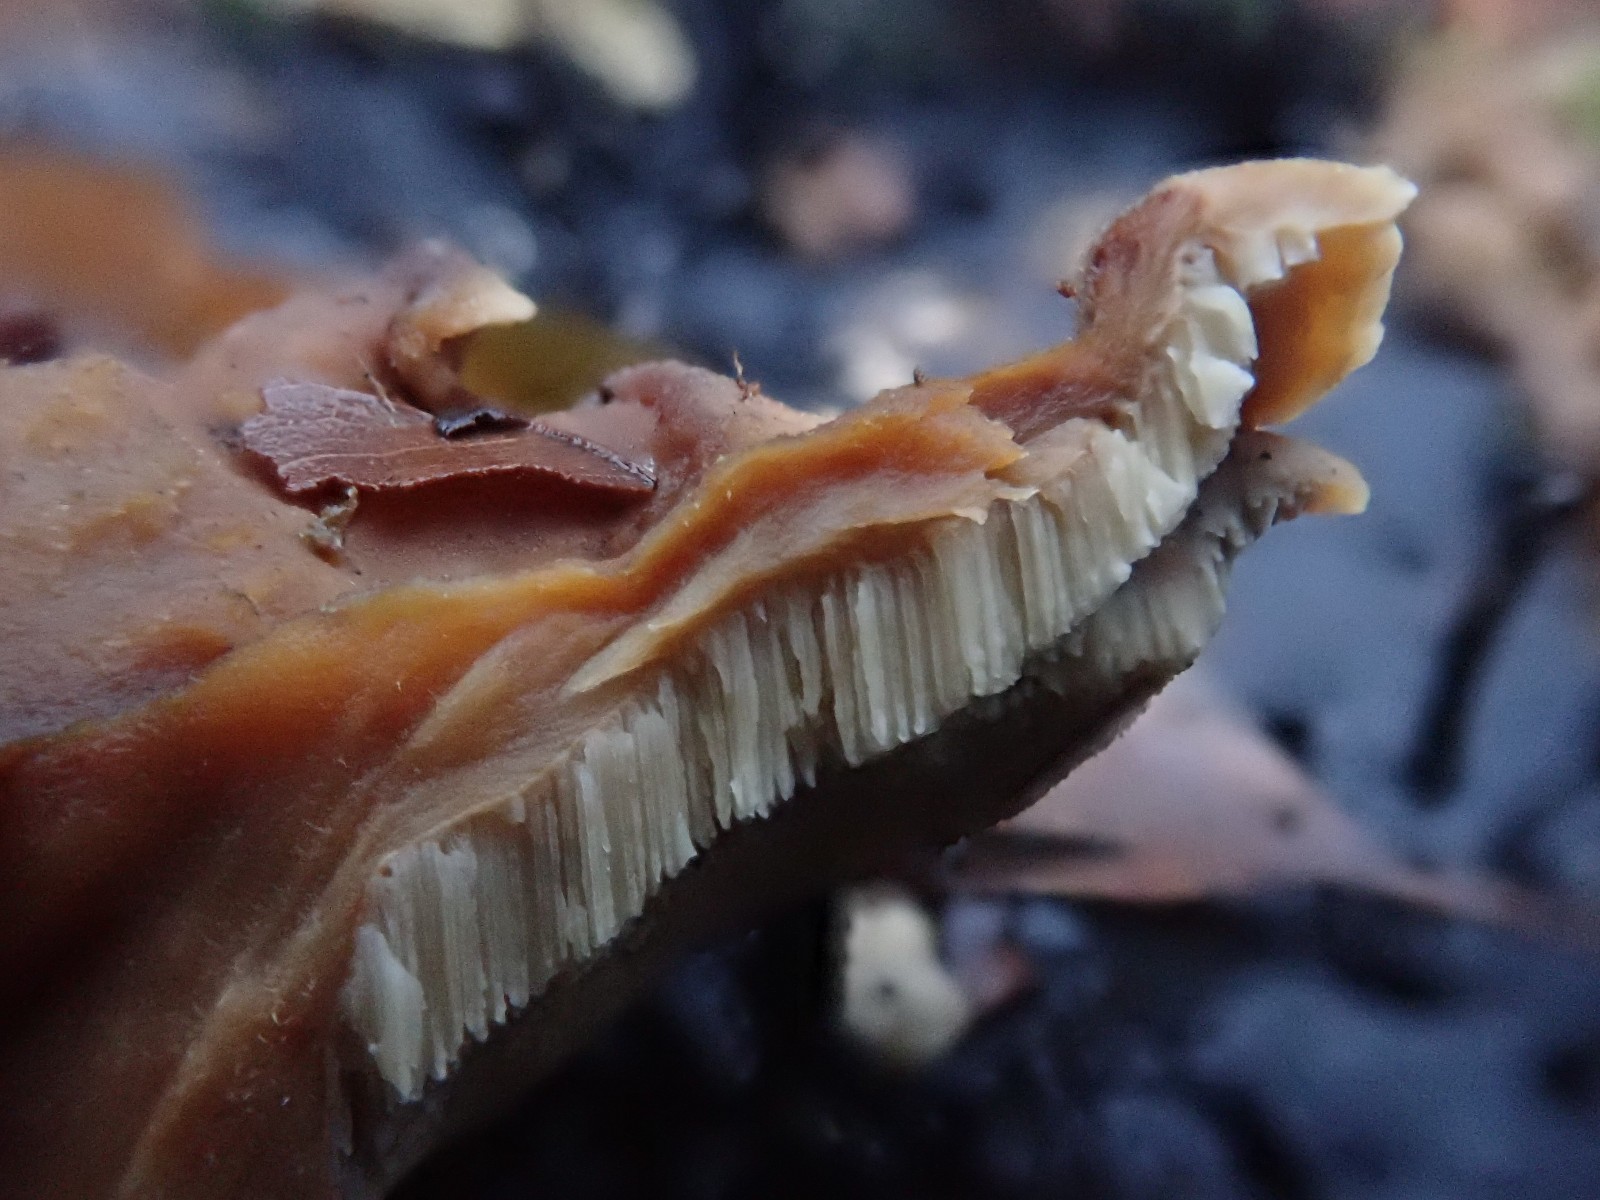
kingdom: Fungi
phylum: Basidiomycota
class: Agaricomycetes
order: Polyporales
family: Phanerochaetaceae
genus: Bjerkandera
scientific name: Bjerkandera fumosa
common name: grågul sodporesvamp
